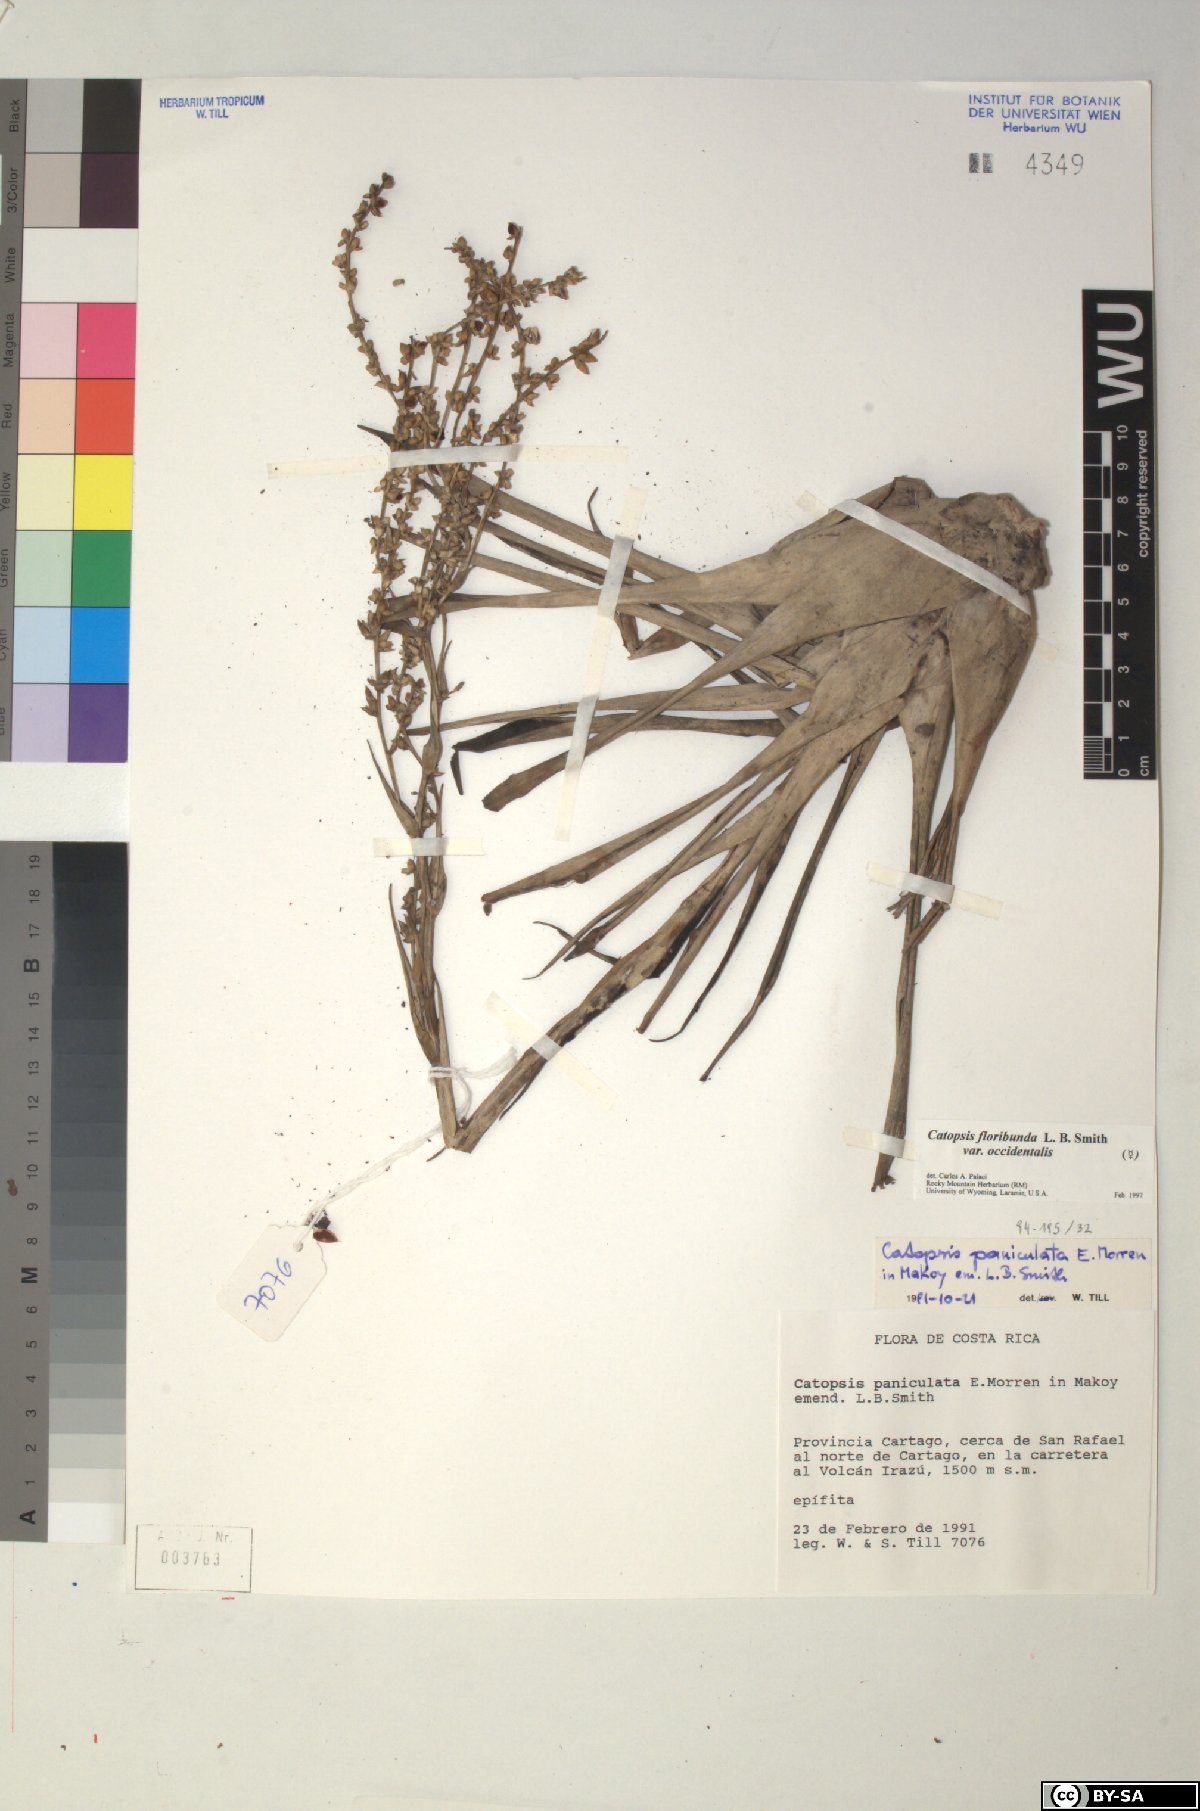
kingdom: Plantae
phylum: Tracheophyta
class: Liliopsida
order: Poales
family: Bromeliaceae
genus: Catopsis
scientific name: Catopsis floribunda
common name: Florida strap airplant
